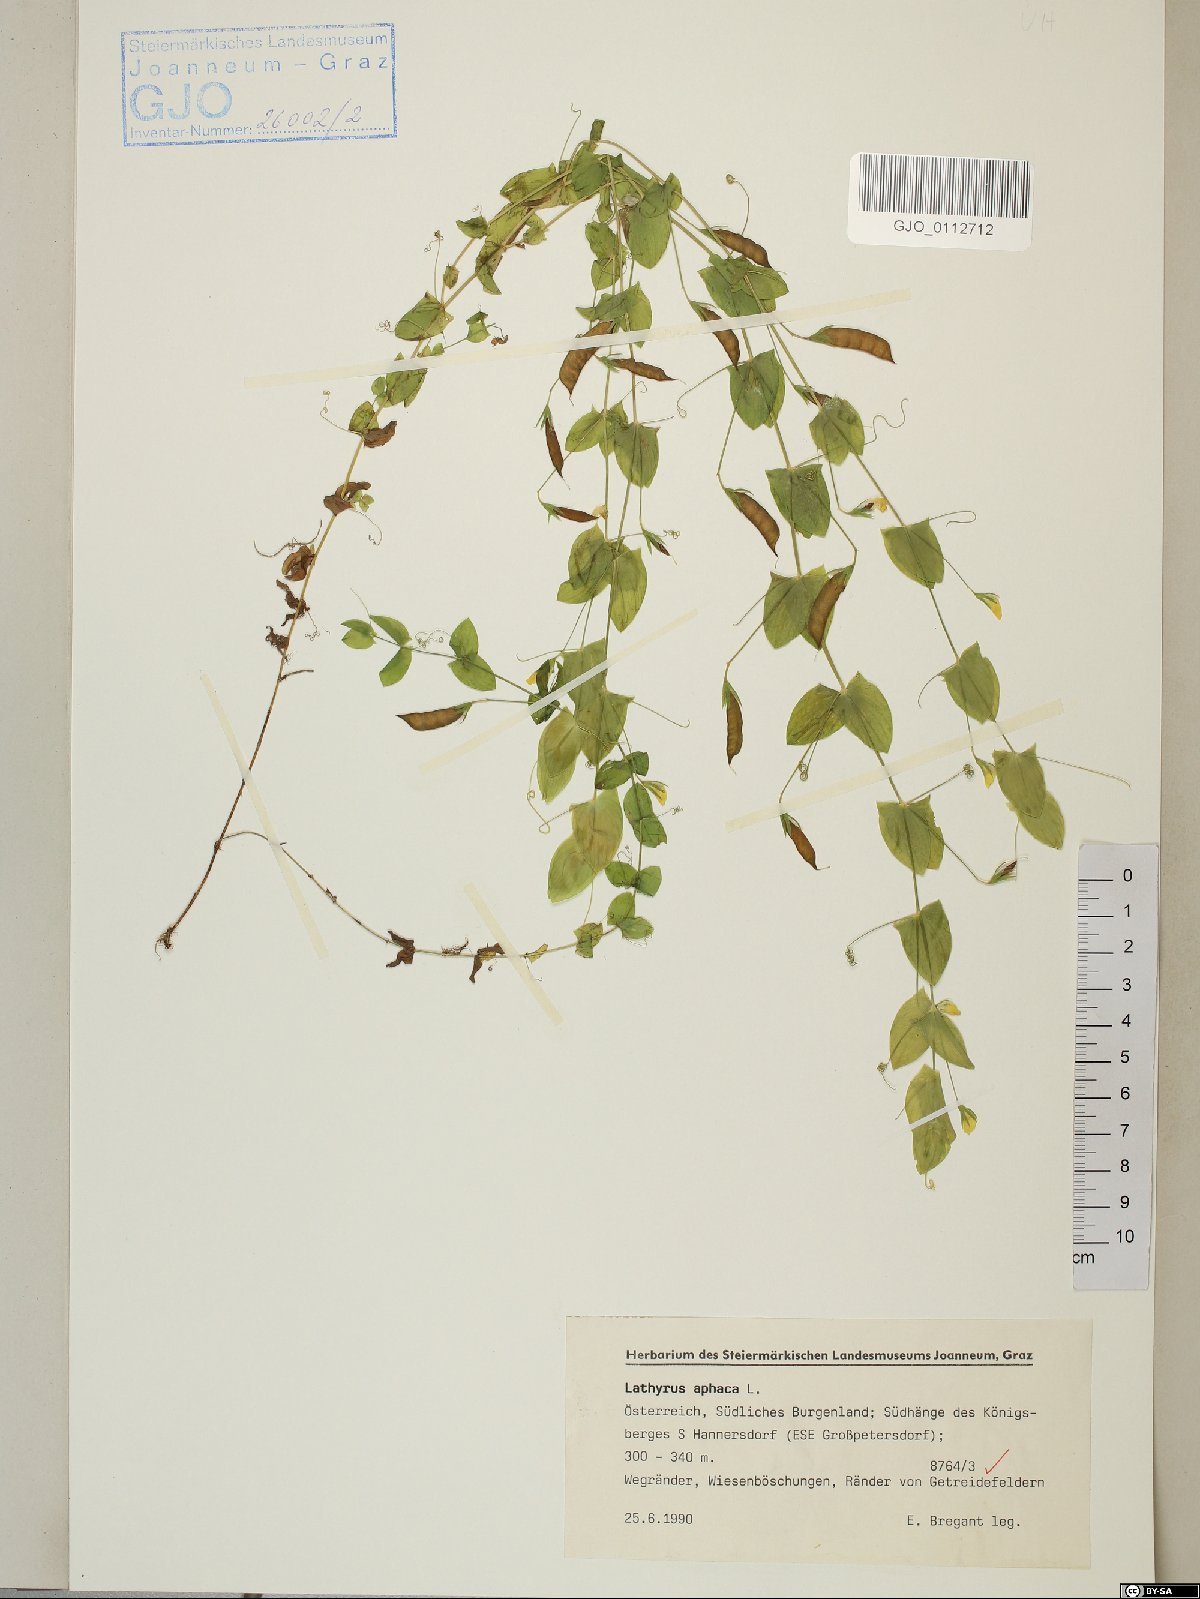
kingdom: Plantae
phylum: Tracheophyta
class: Magnoliopsida
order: Fabales
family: Fabaceae
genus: Lathyrus
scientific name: Lathyrus aphaca
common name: Yellow vetchling
